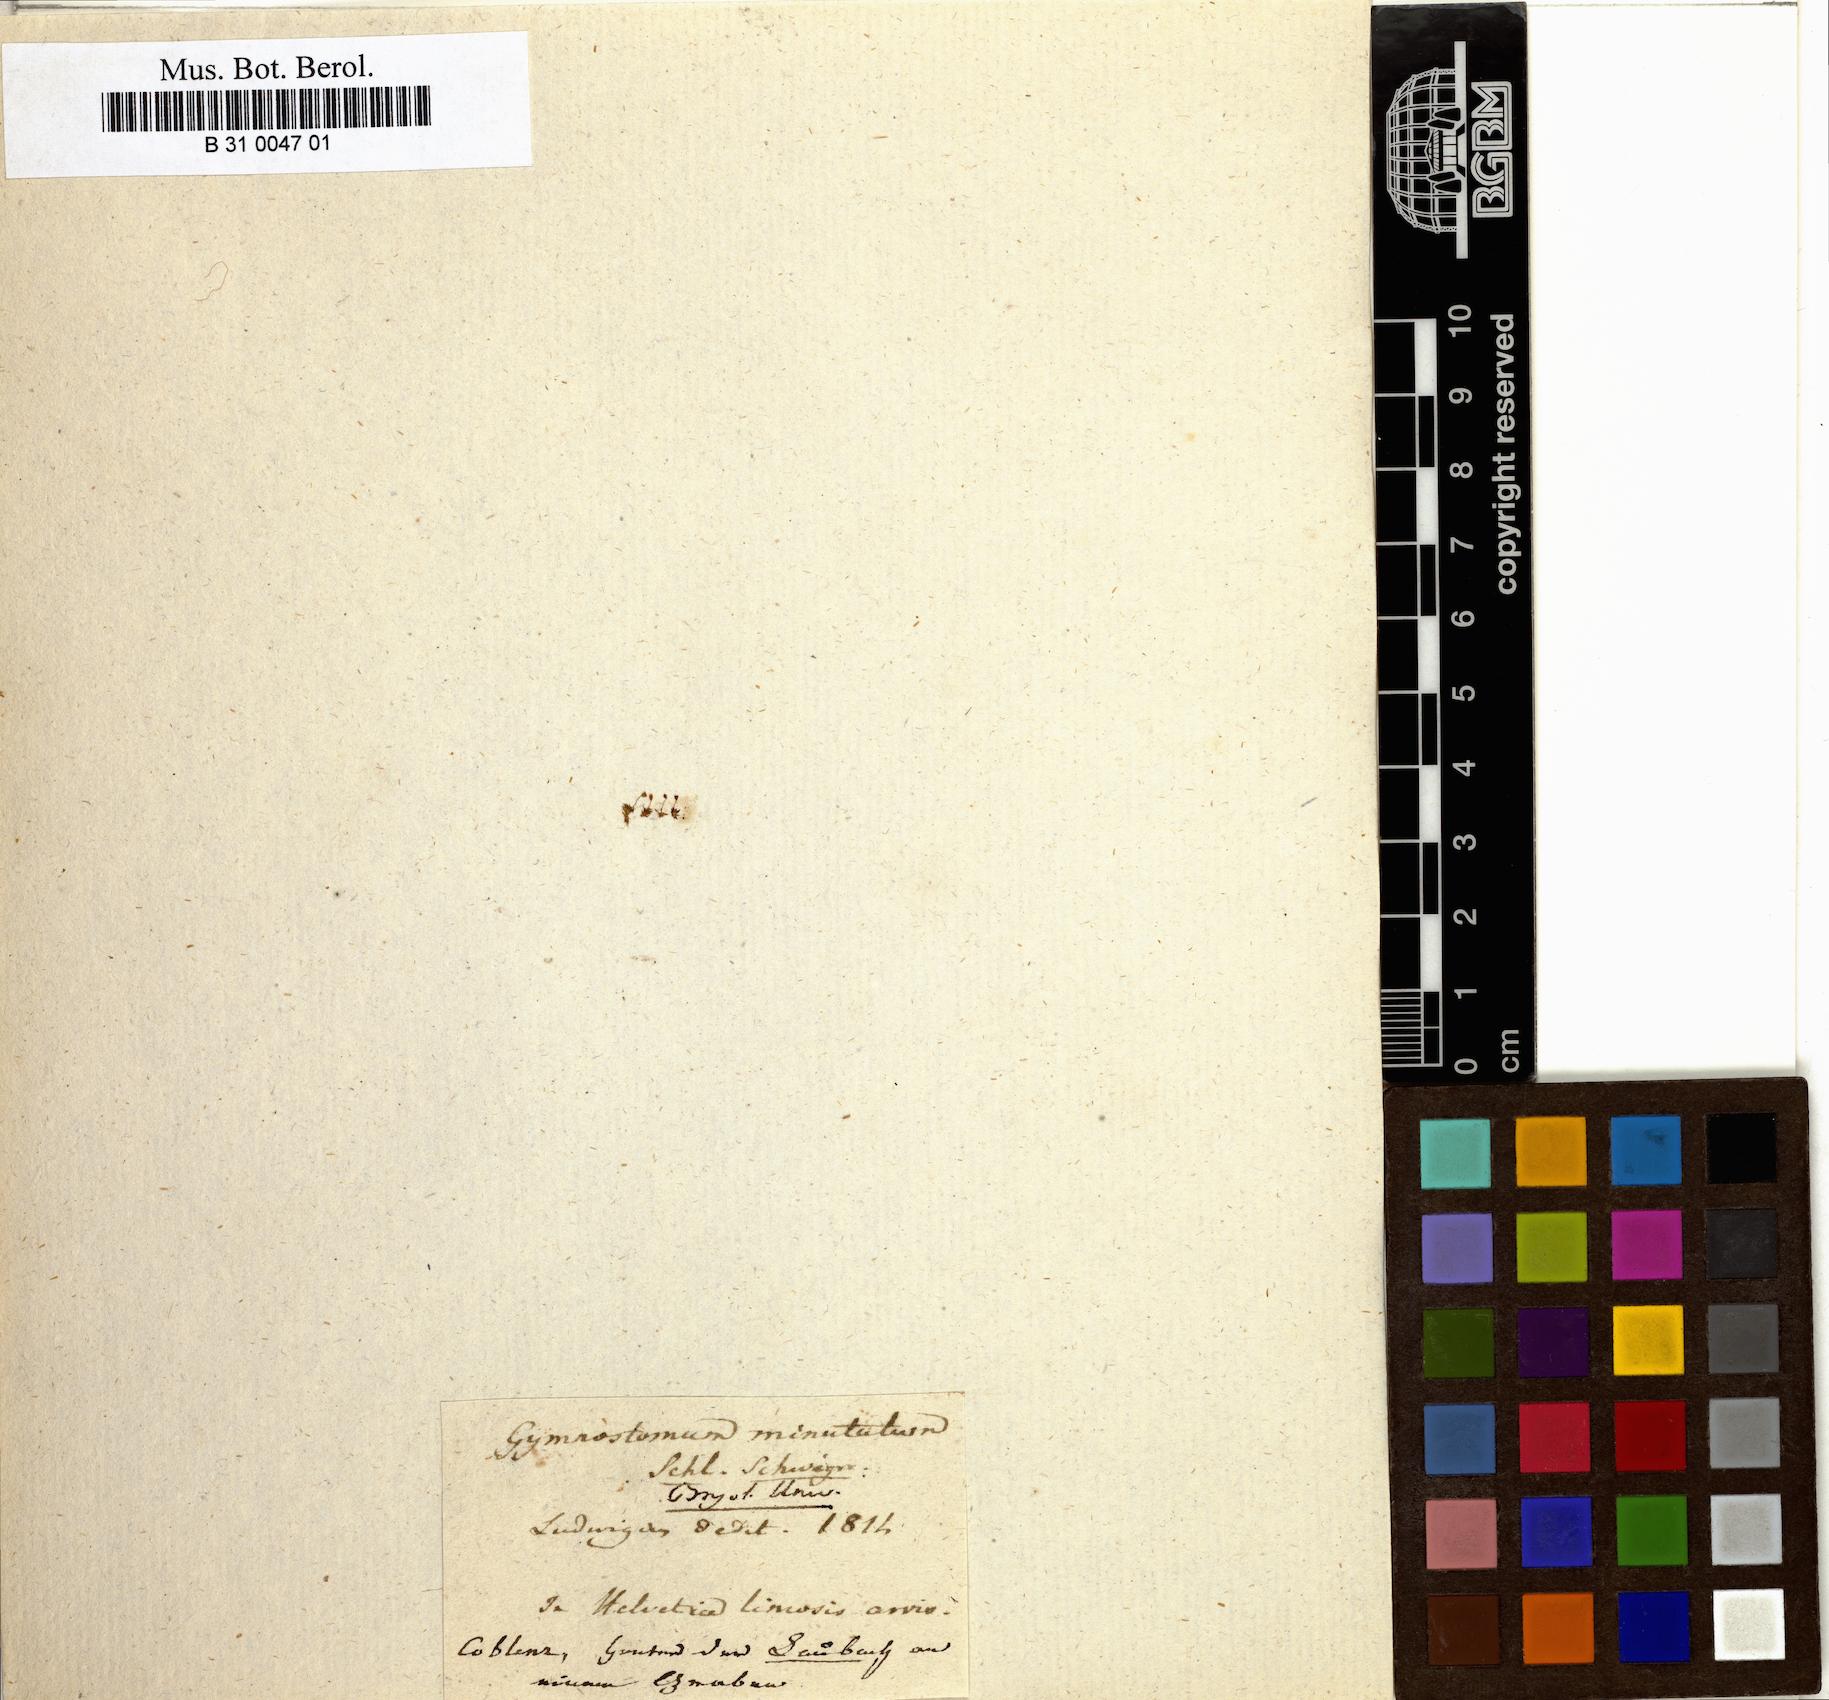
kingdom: Plantae
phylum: Bryophyta
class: Bryopsida
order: Pottiales
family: Pottiaceae
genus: Microbryum
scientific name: Microbryum davallianum
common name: Smallest pottia
